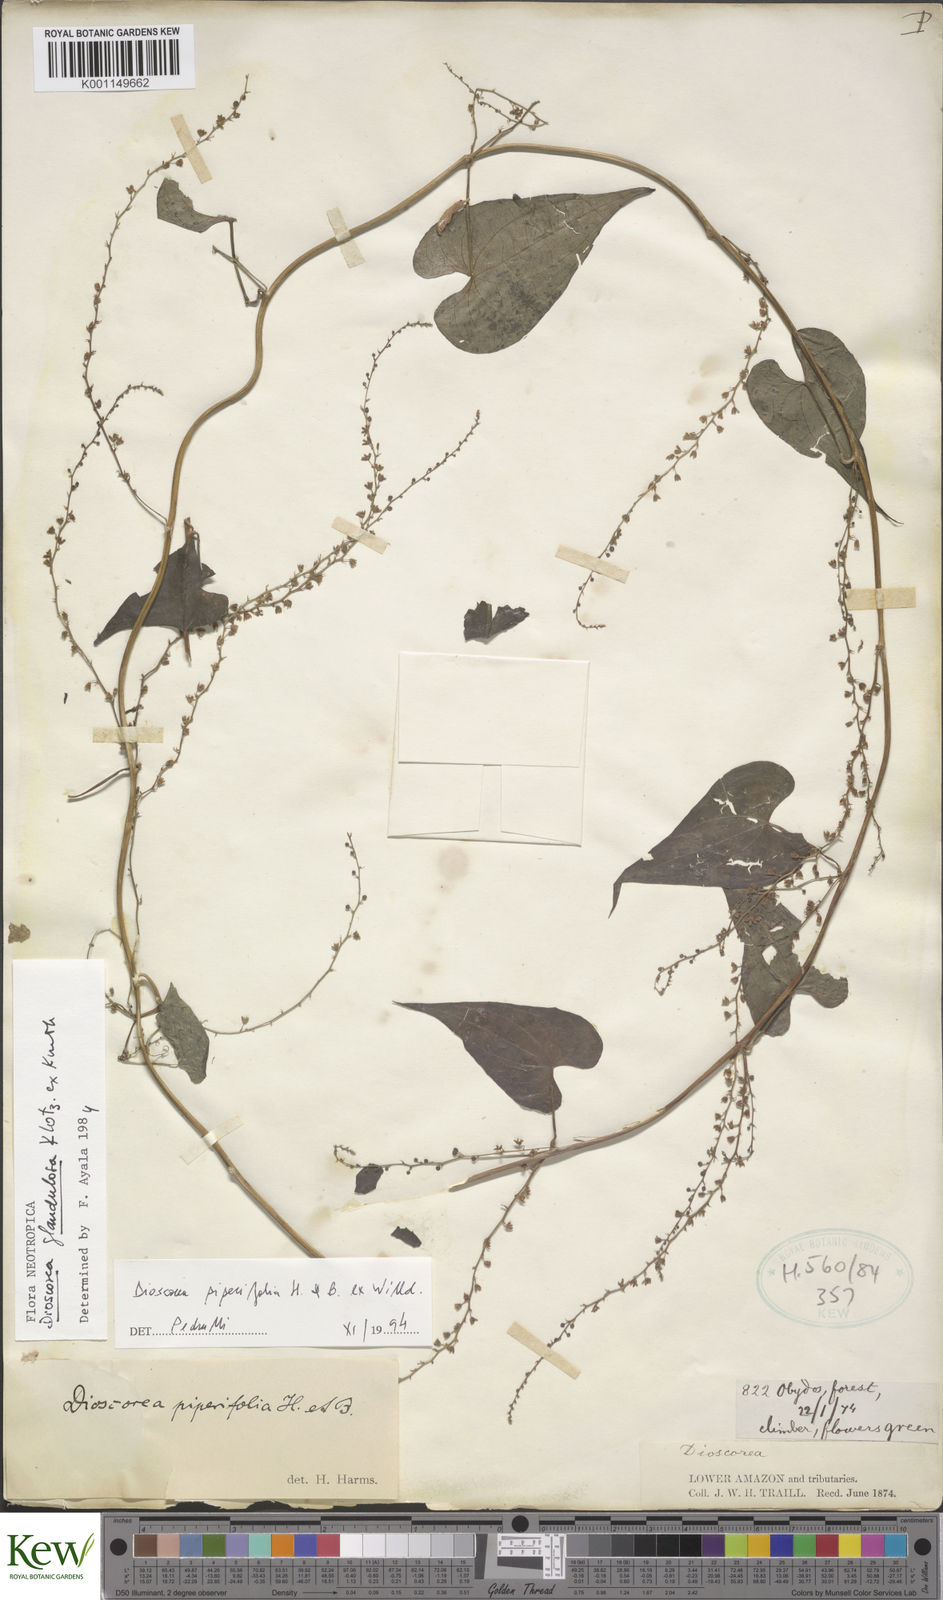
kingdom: Plantae
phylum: Tracheophyta
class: Liliopsida
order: Dioscoreales
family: Dioscoreaceae
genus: Dioscorea
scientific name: Dioscorea glandulosa
